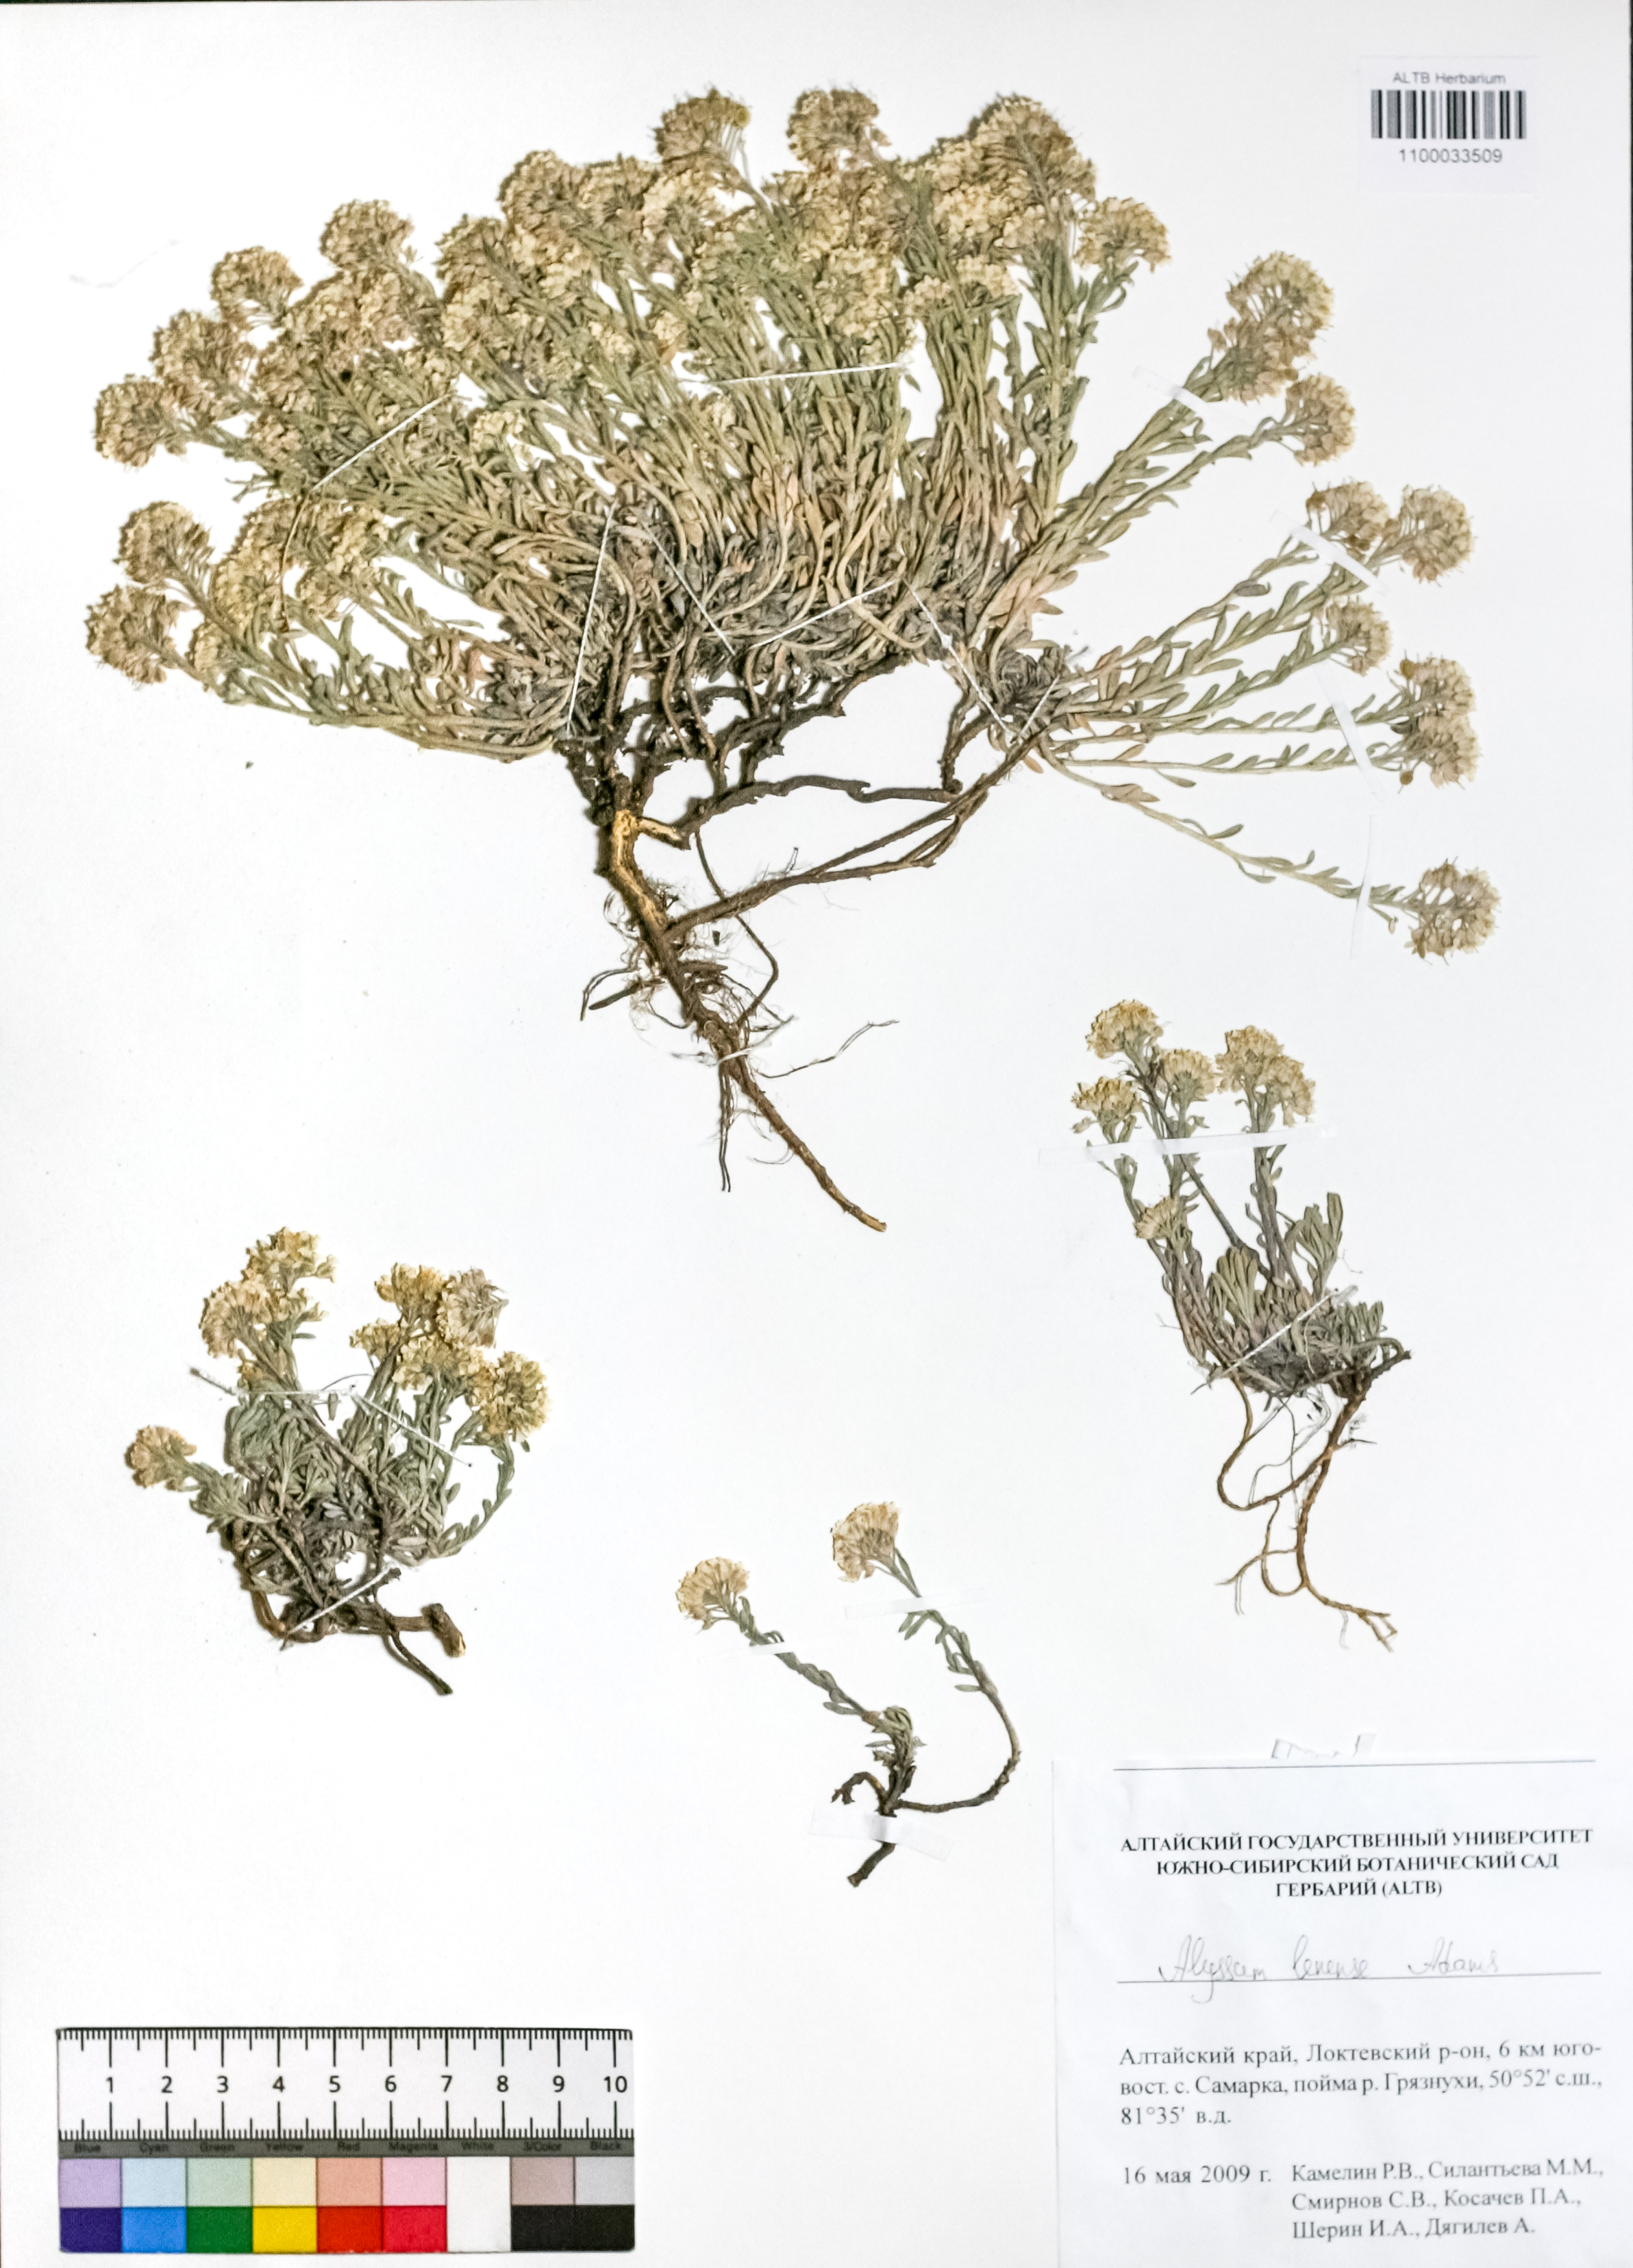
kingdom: Plantae
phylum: Tracheophyta
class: Magnoliopsida
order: Brassicales
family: Brassicaceae
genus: Alyssum
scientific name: Alyssum lenense
